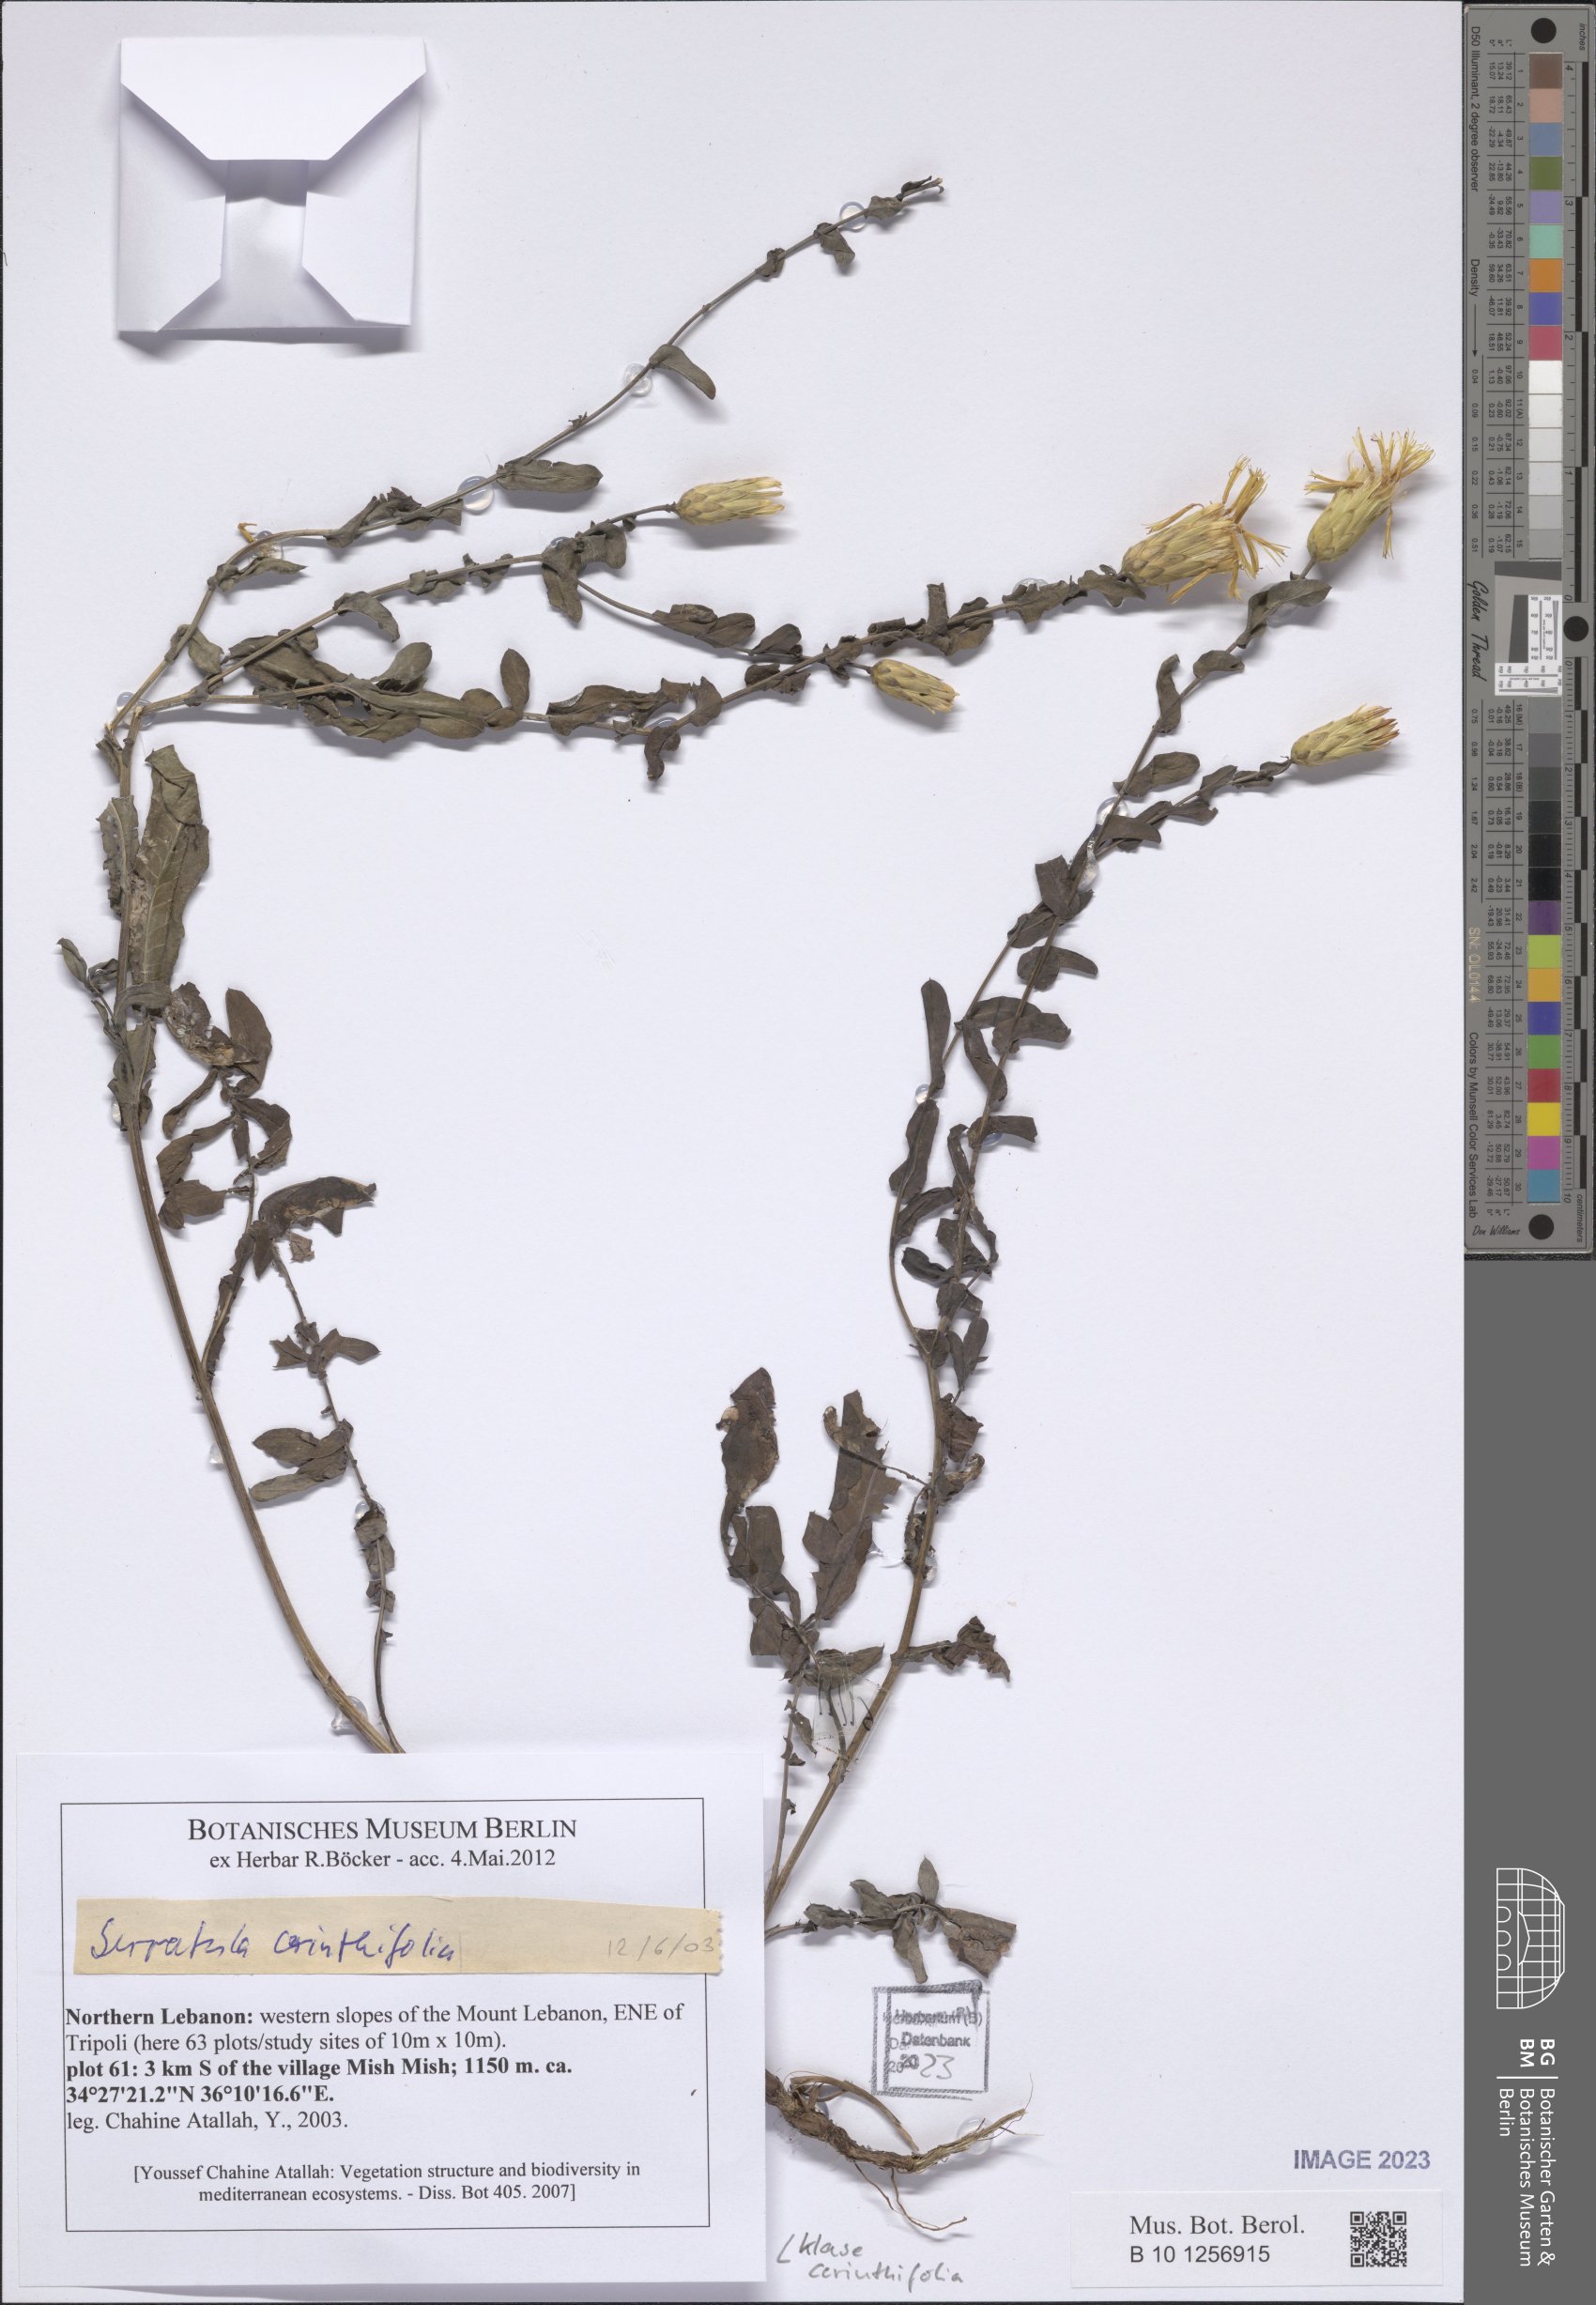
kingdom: Plantae
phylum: Tracheophyta
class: Magnoliopsida
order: Asterales
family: Asteraceae
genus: Klasea
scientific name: Klasea cerinthifolia
